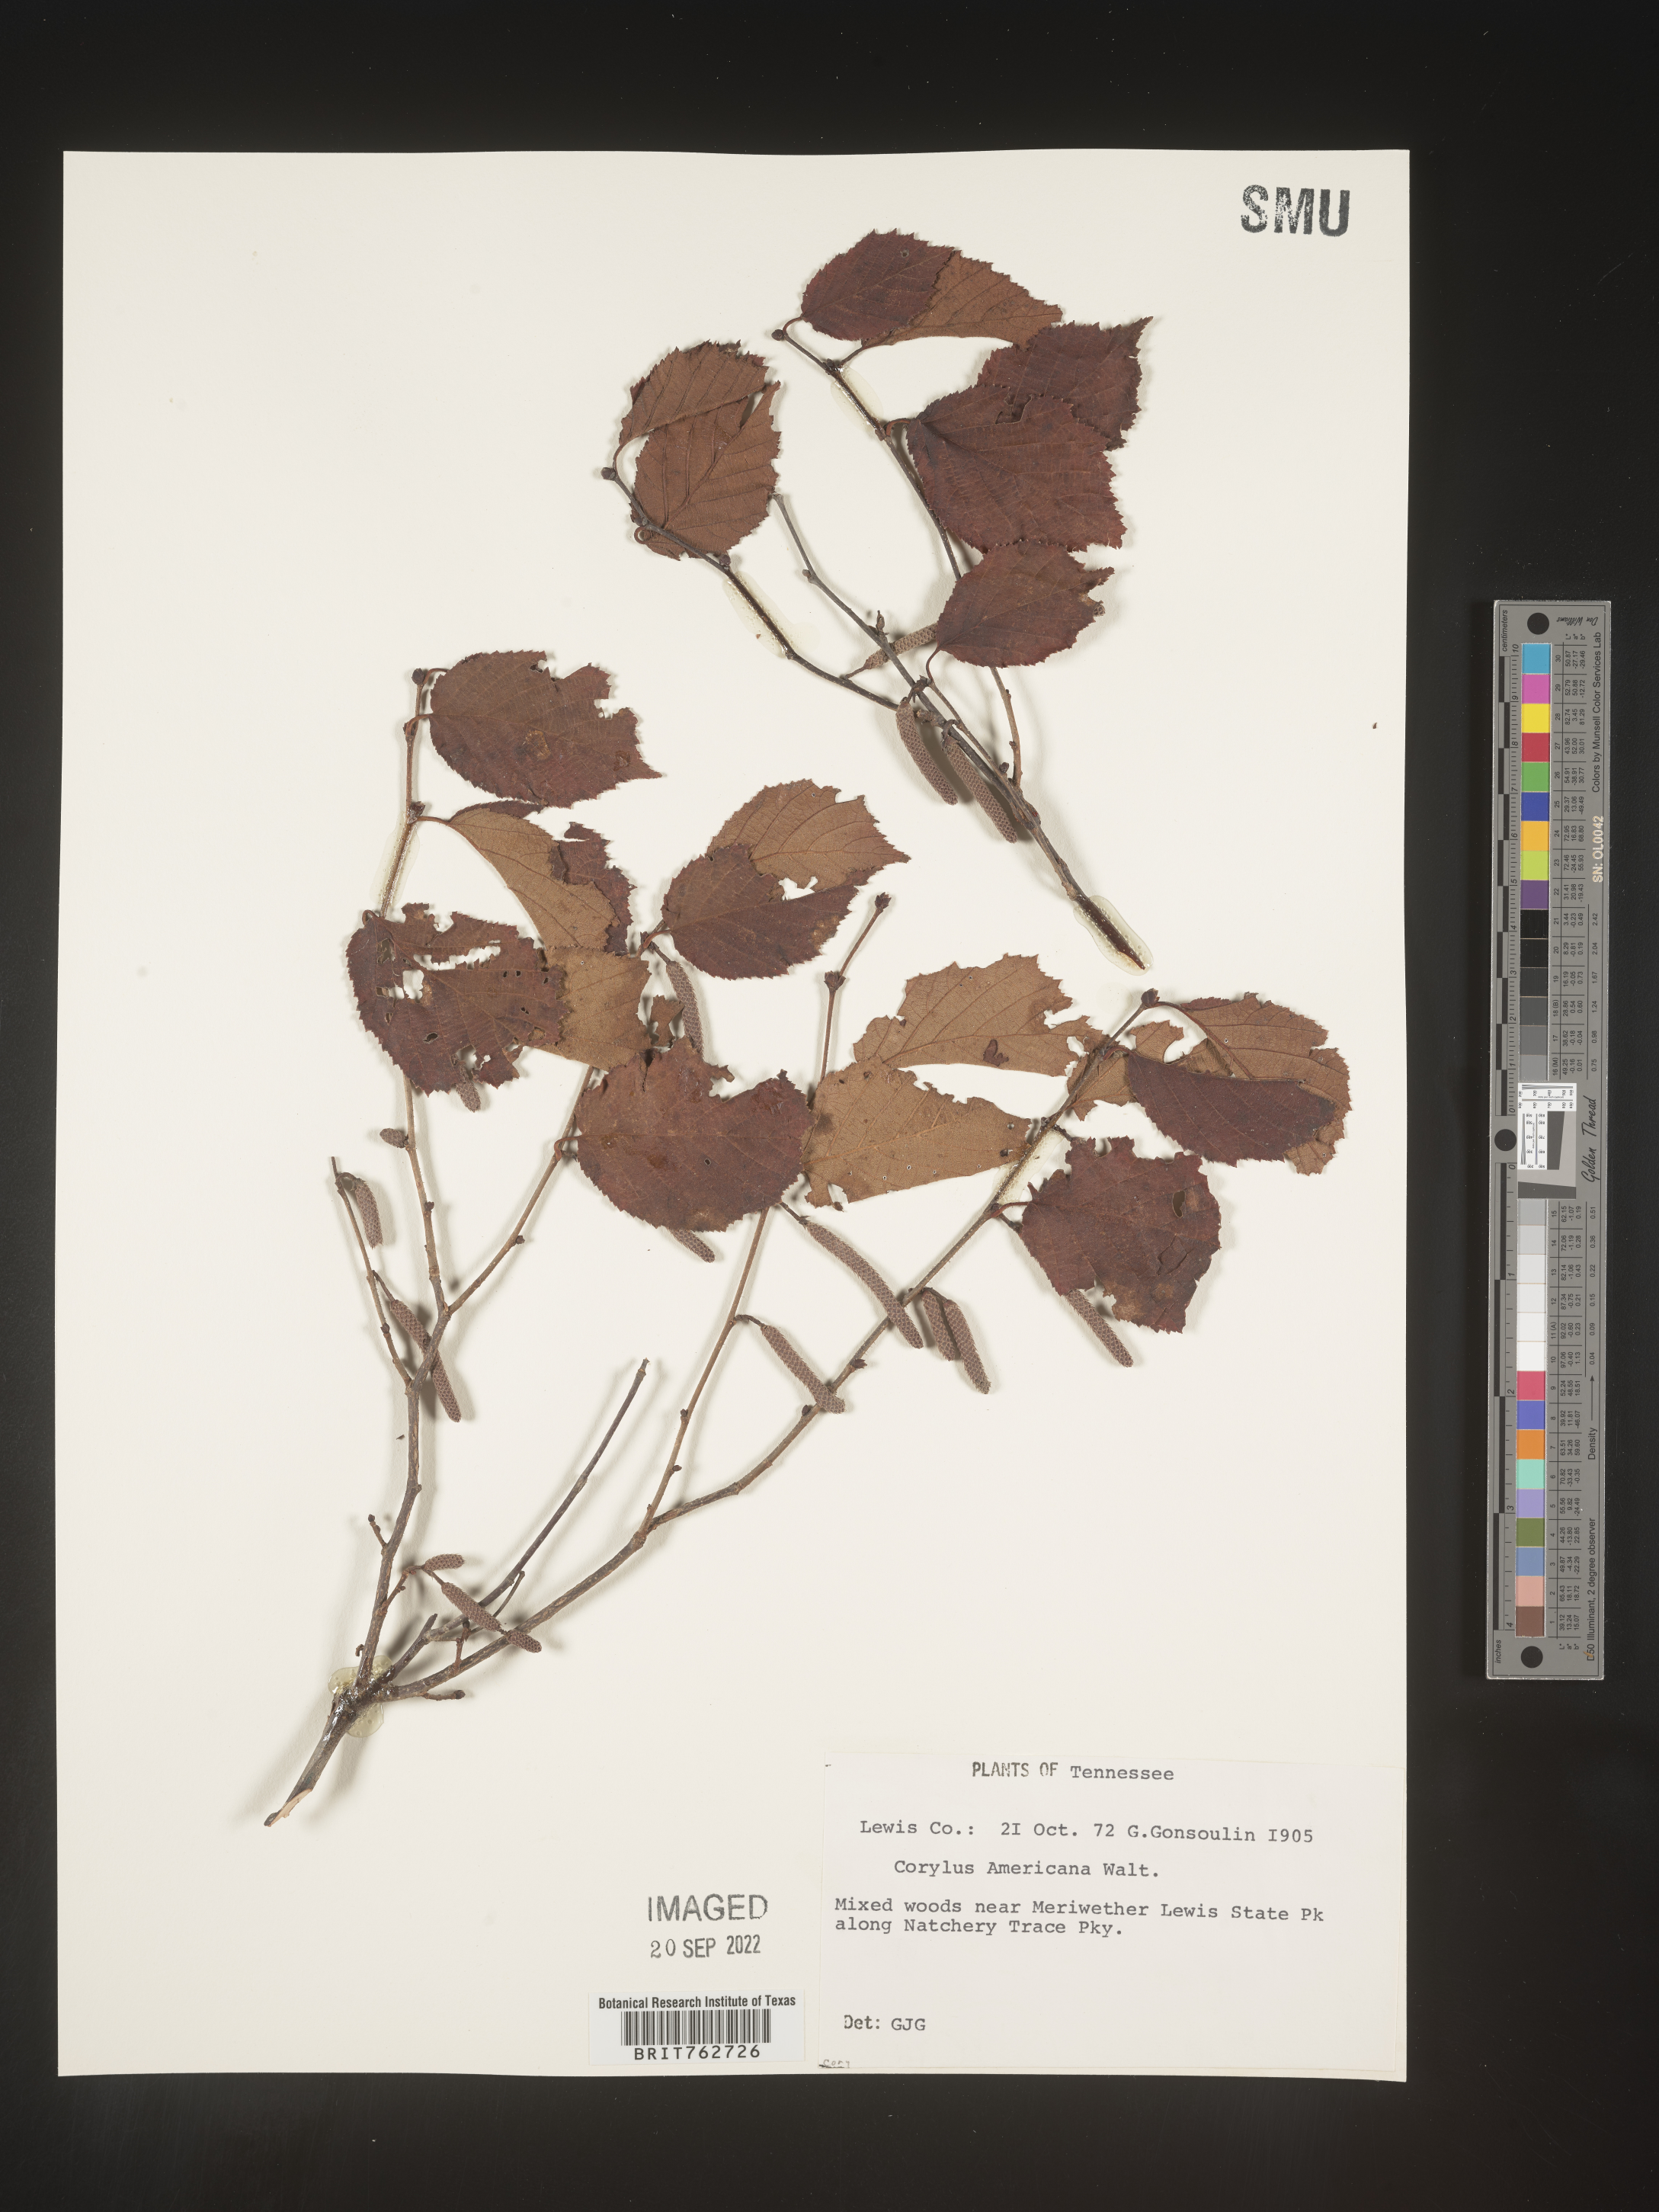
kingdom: Plantae
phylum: Tracheophyta
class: Magnoliopsida
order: Fagales
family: Betulaceae
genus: Corylus
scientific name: Corylus americana
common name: American hazel
